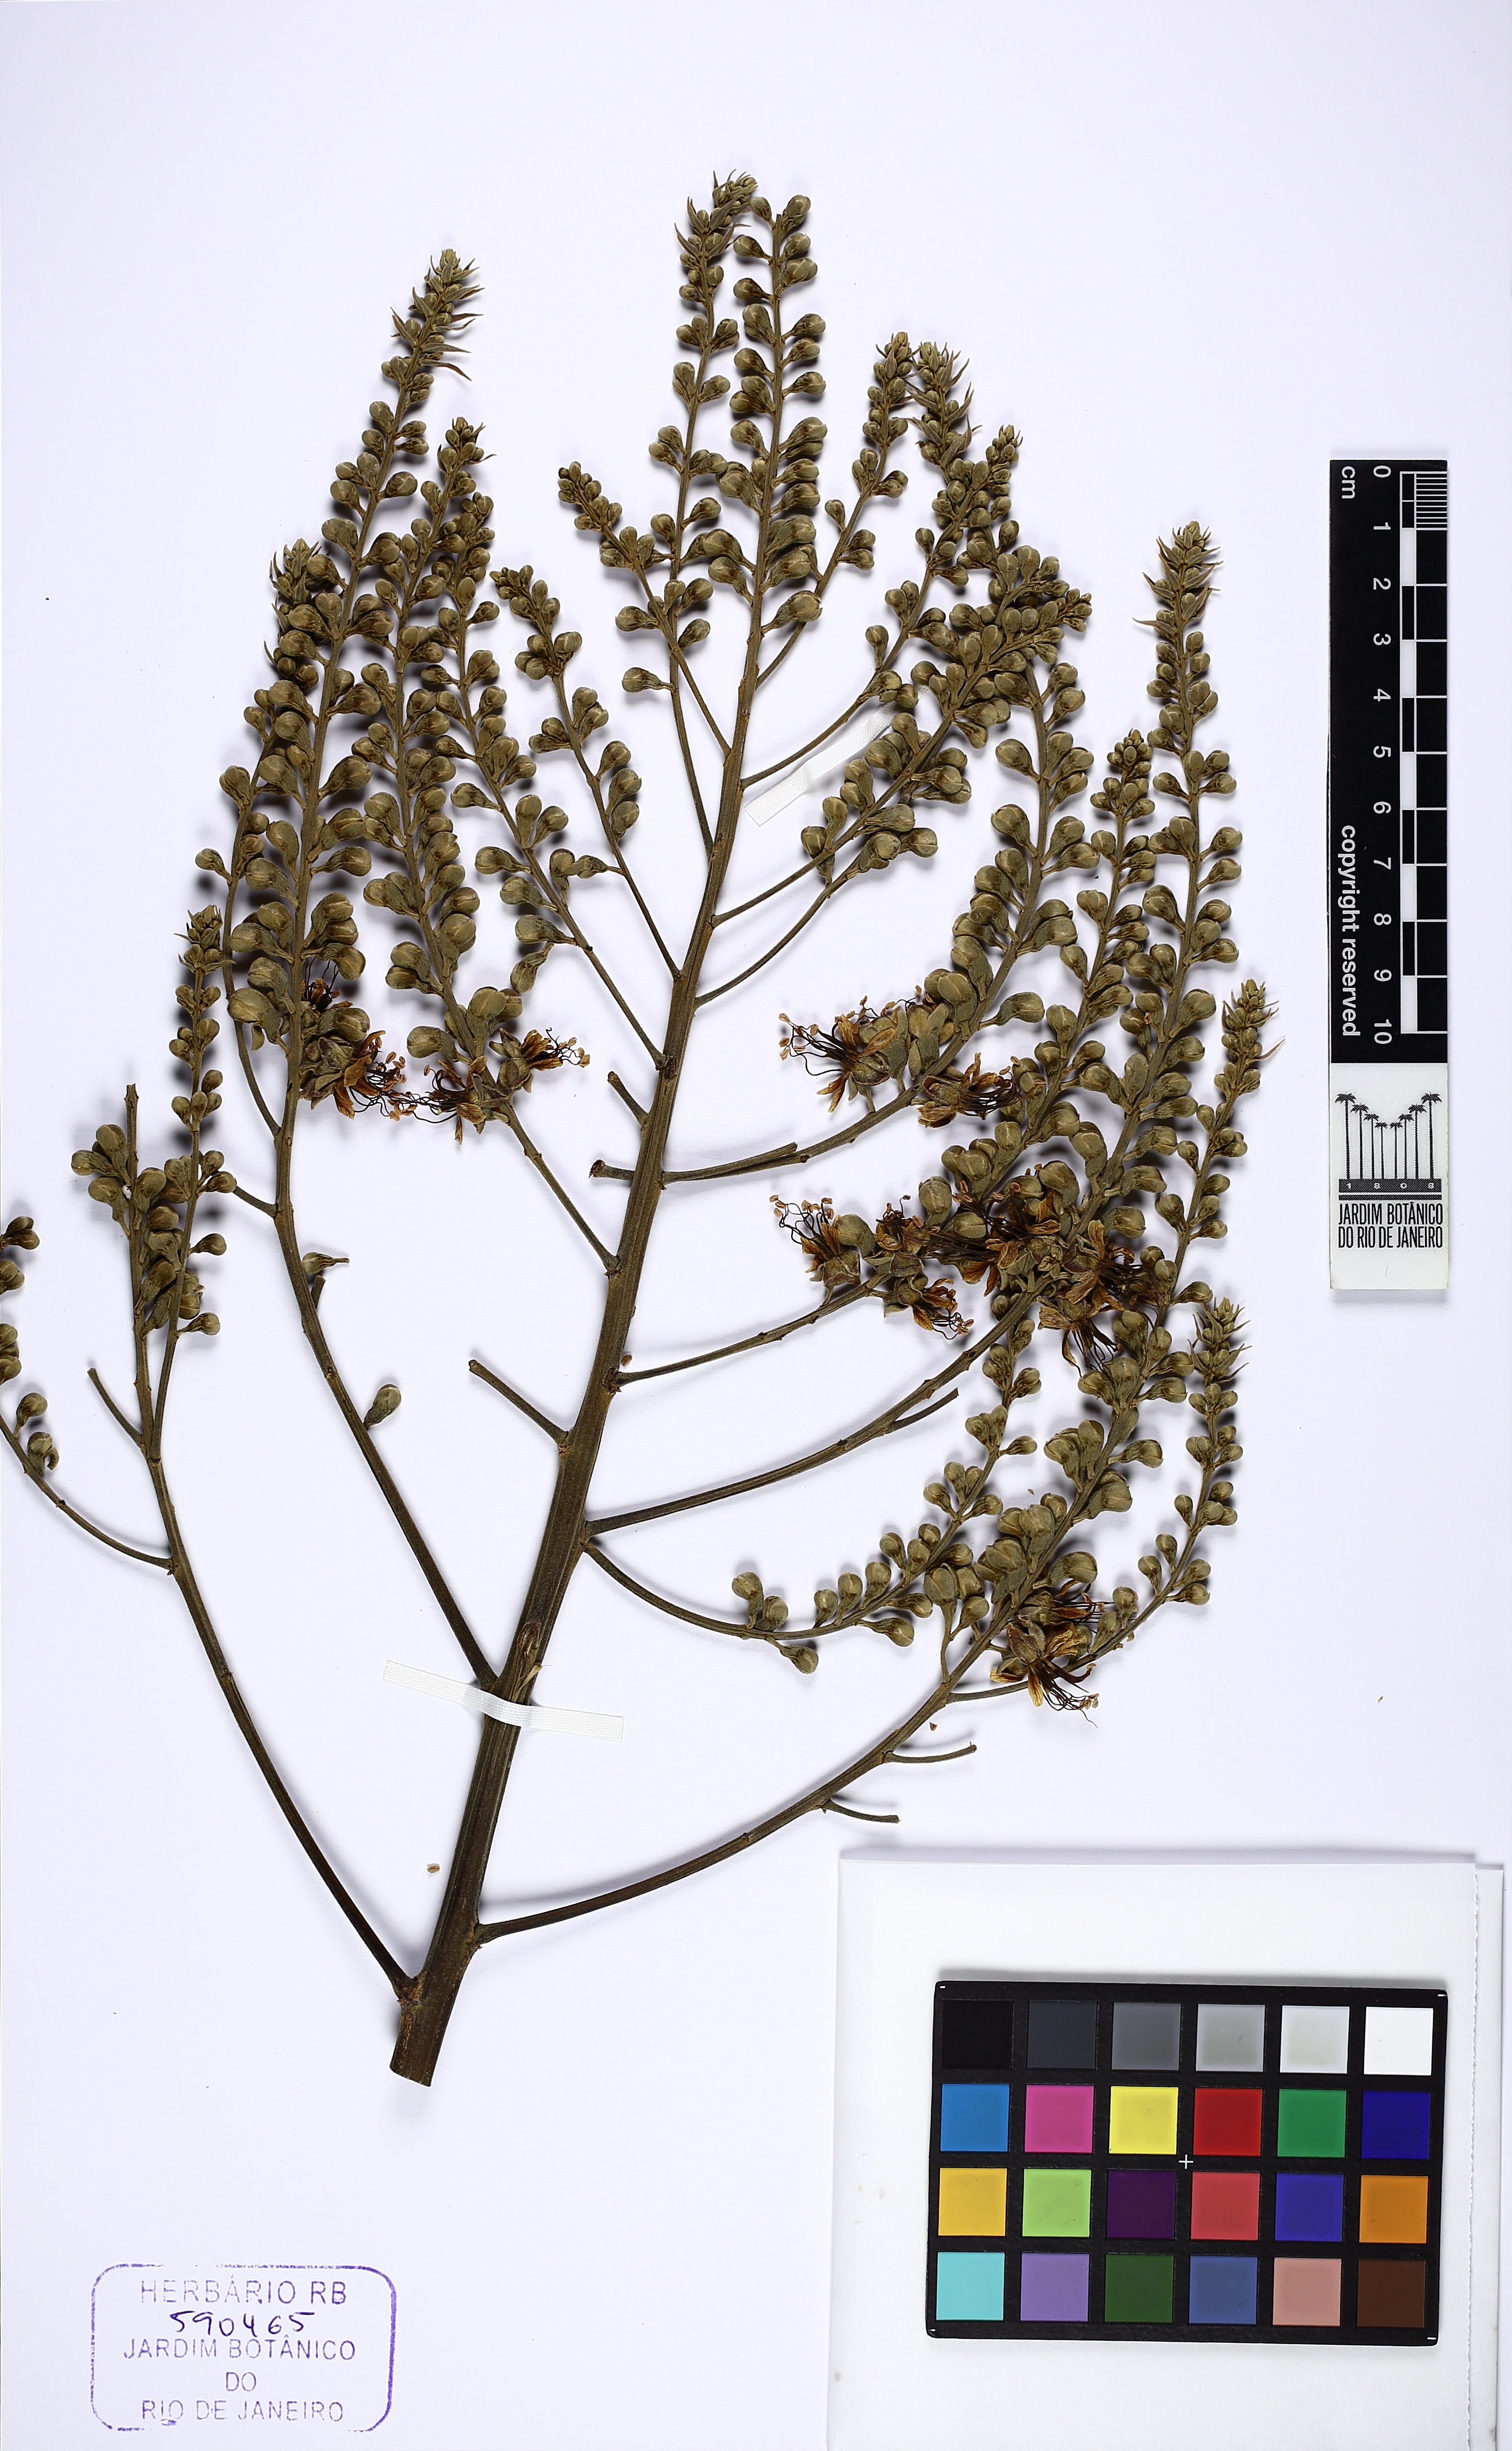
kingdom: Plantae
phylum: Tracheophyta
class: Magnoliopsida
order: Fabales
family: Fabaceae
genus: Tachigali
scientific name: Tachigali paratyensis
